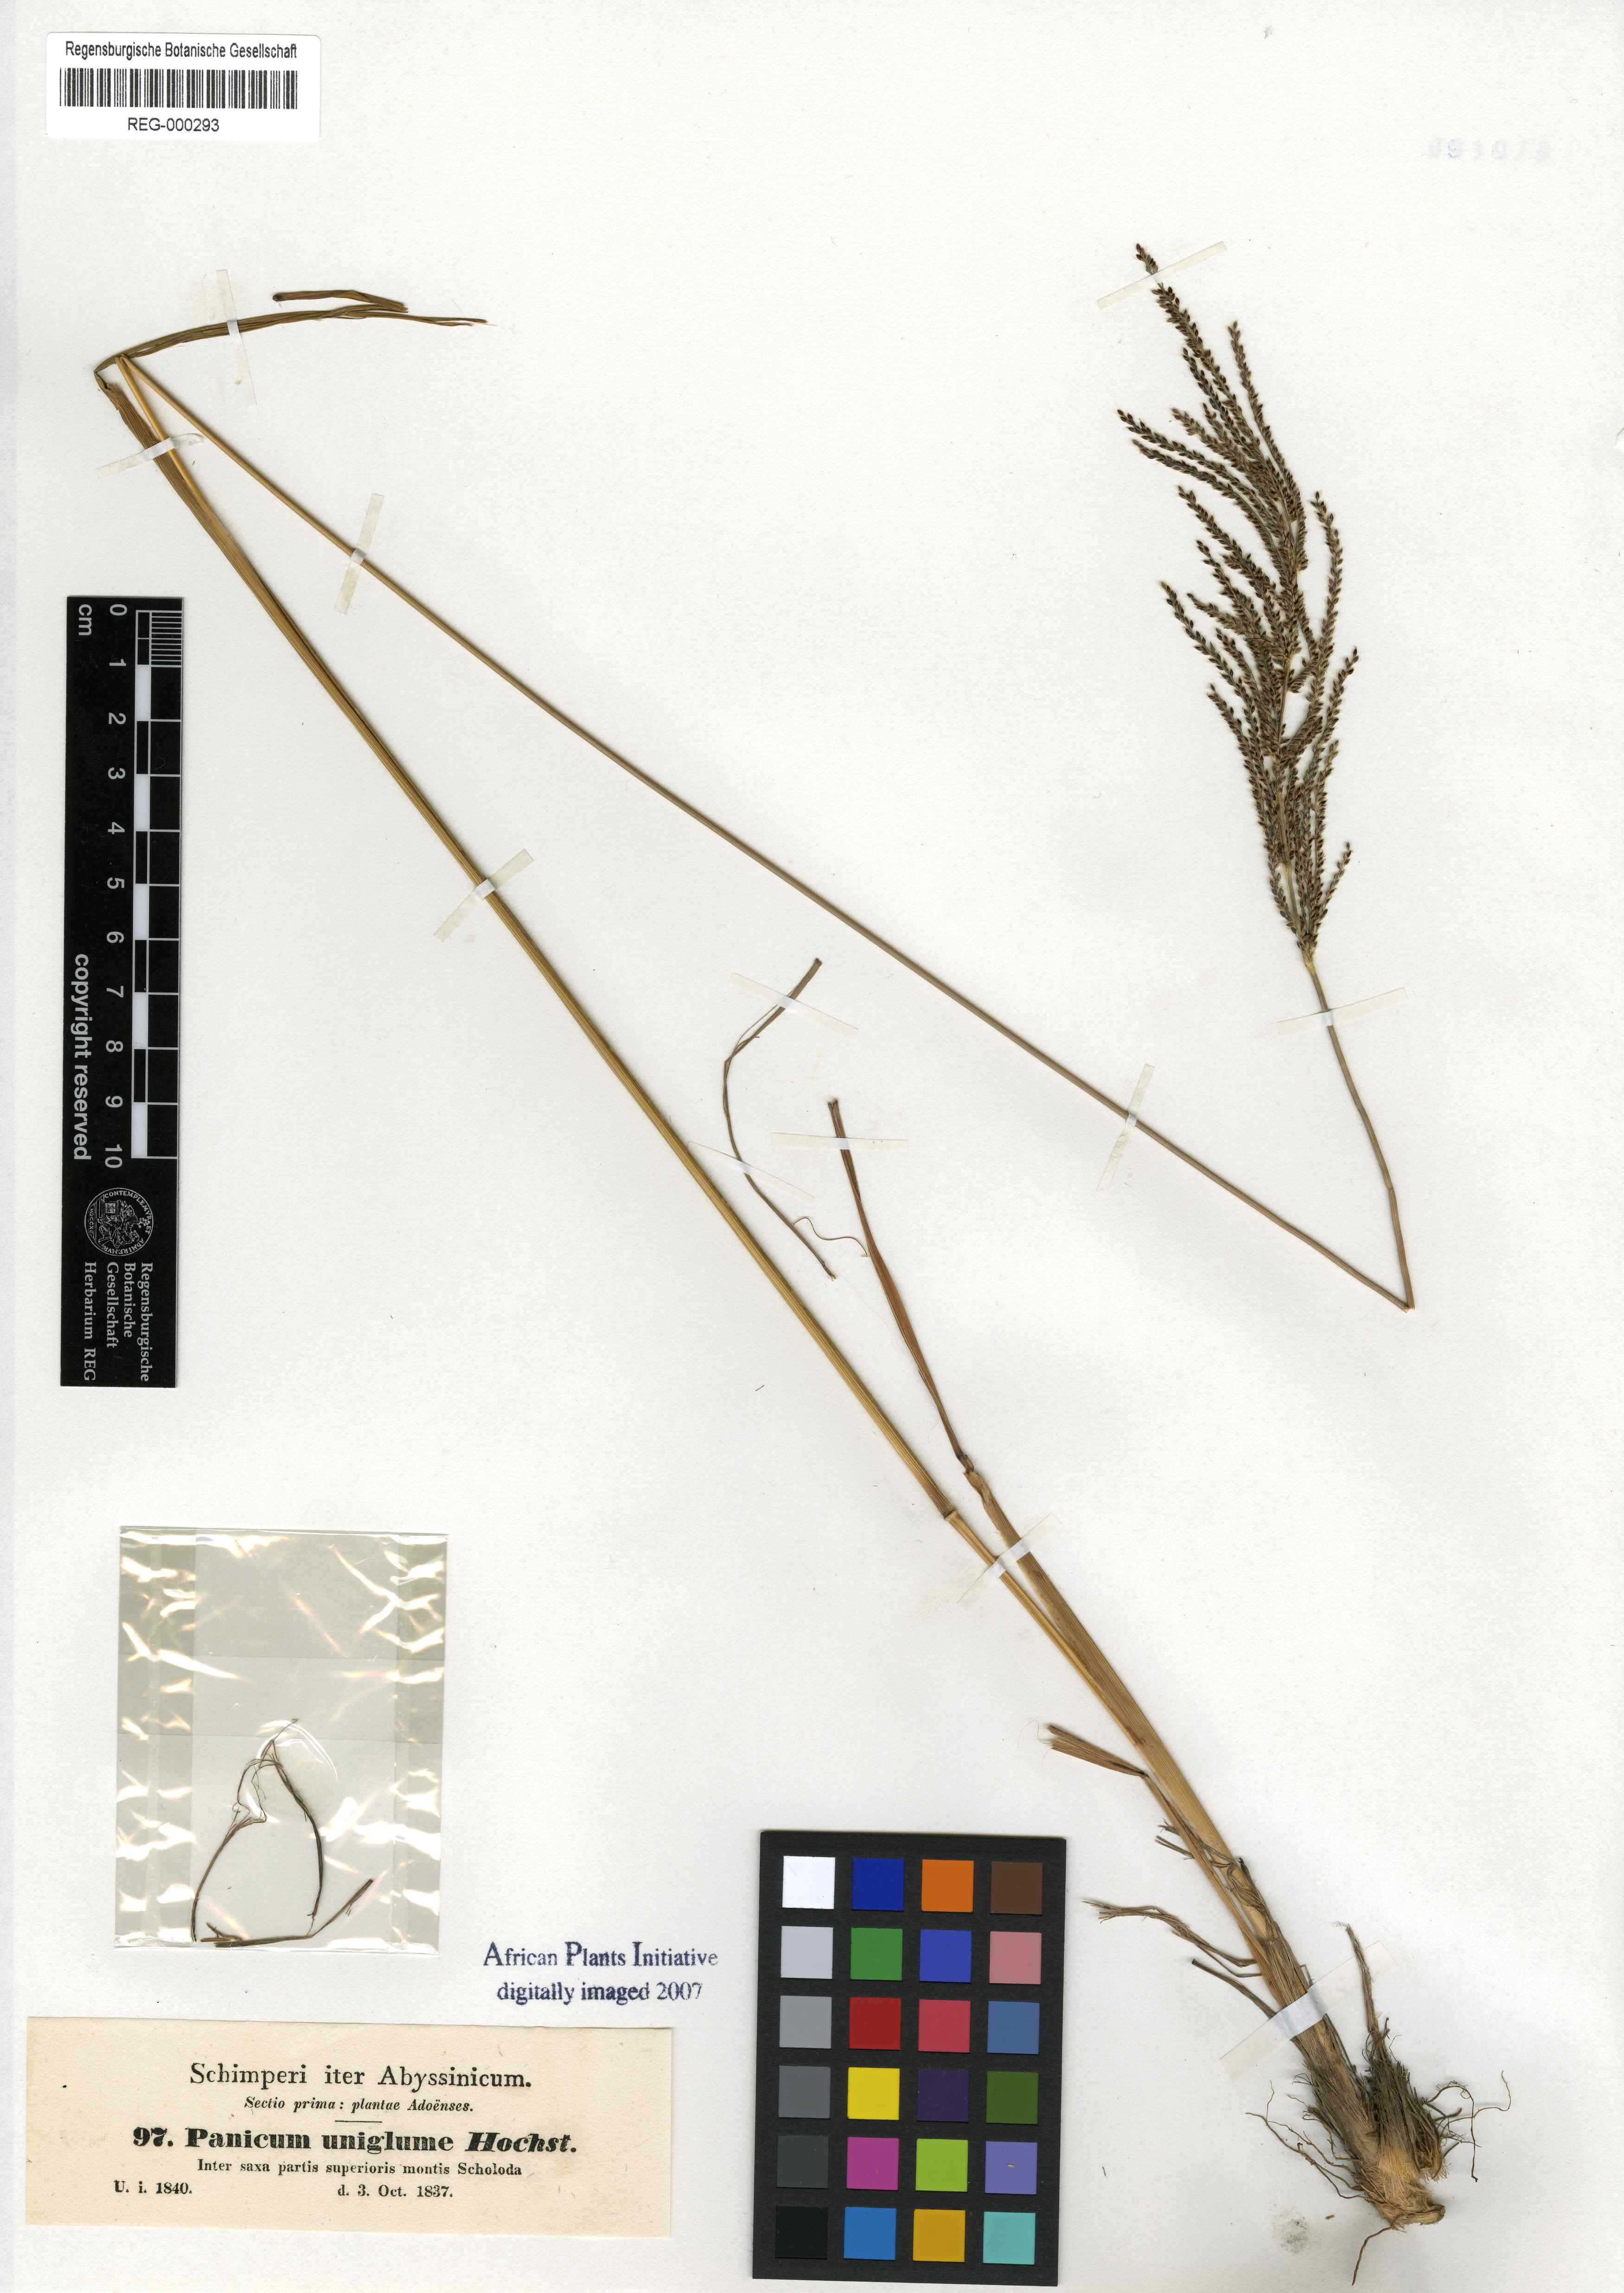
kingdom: Plantae
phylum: Tracheophyta
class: Liliopsida
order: Poales
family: Poaceae
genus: Panicum
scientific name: Panicum uniglume
